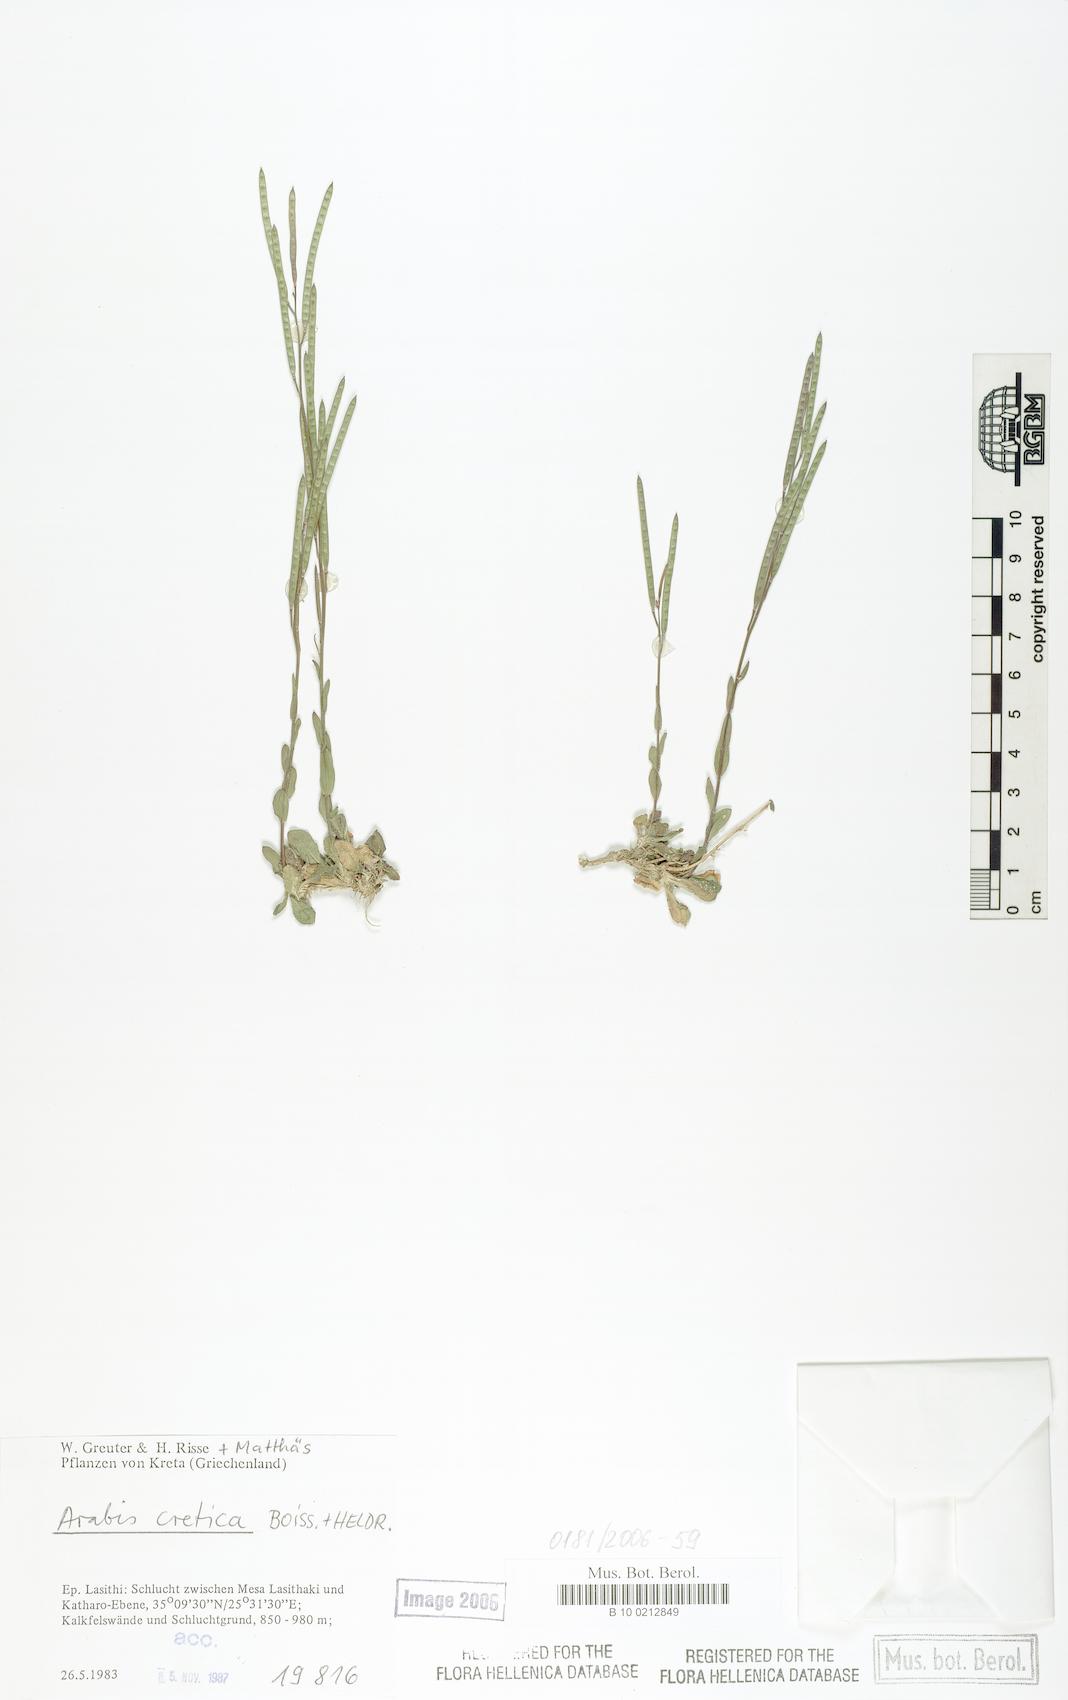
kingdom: Plantae
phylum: Tracheophyta
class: Magnoliopsida
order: Brassicales
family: Brassicaceae
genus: Arabis
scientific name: Arabis cretica
